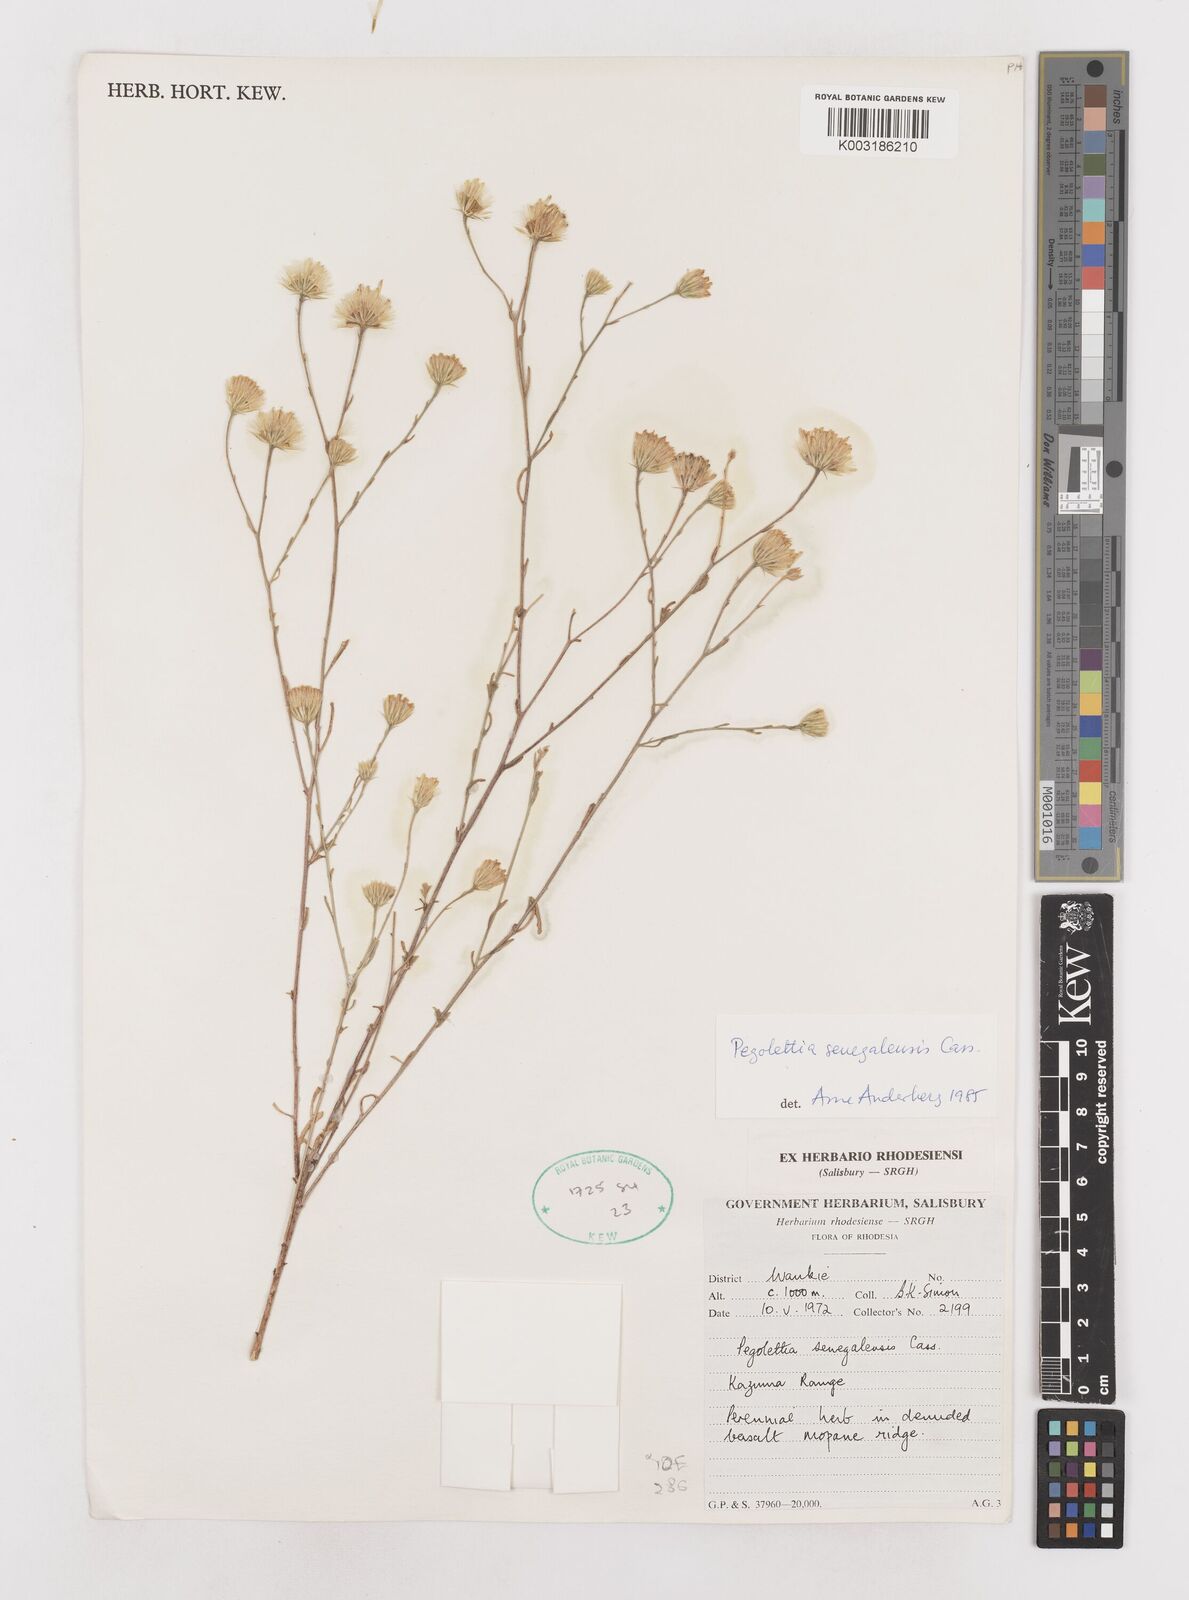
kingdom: Plantae
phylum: Tracheophyta
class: Magnoliopsida
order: Asterales
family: Asteraceae
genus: Pegolettia
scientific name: Pegolettia senegalensis
